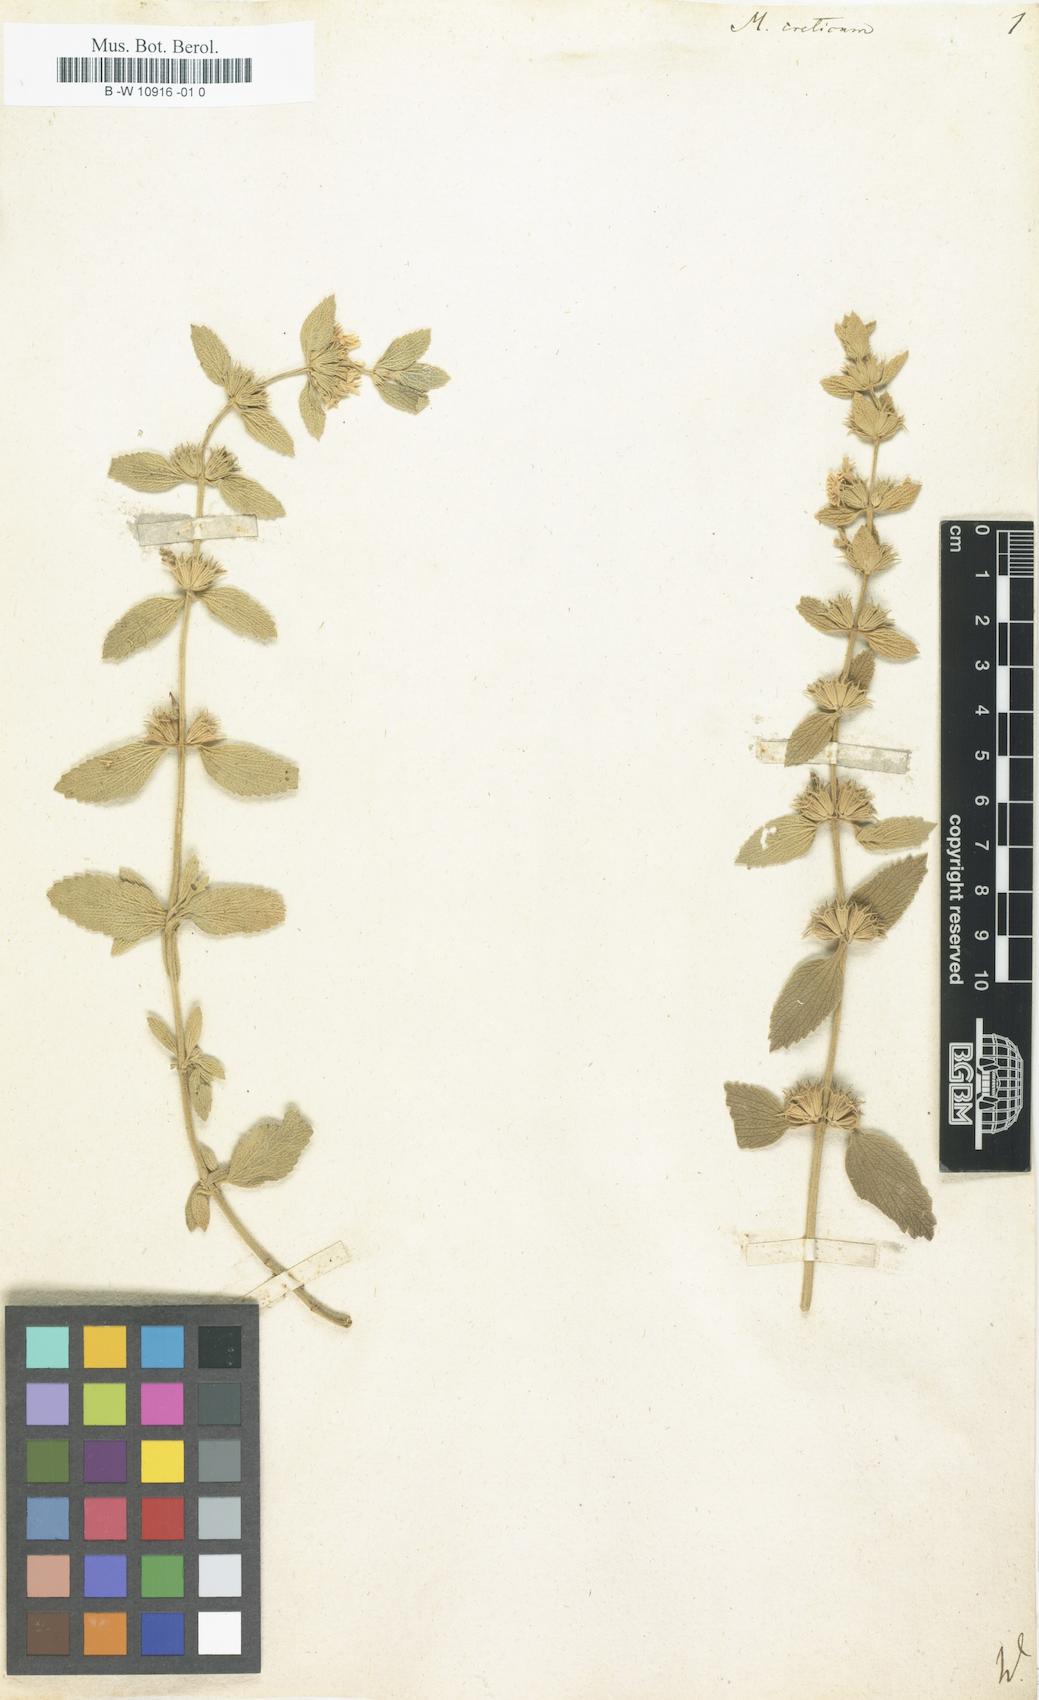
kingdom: Plantae
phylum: Tracheophyta
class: Magnoliopsida
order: Lamiales
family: Lamiaceae
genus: Marrubium
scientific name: Marrubium peregrinum
